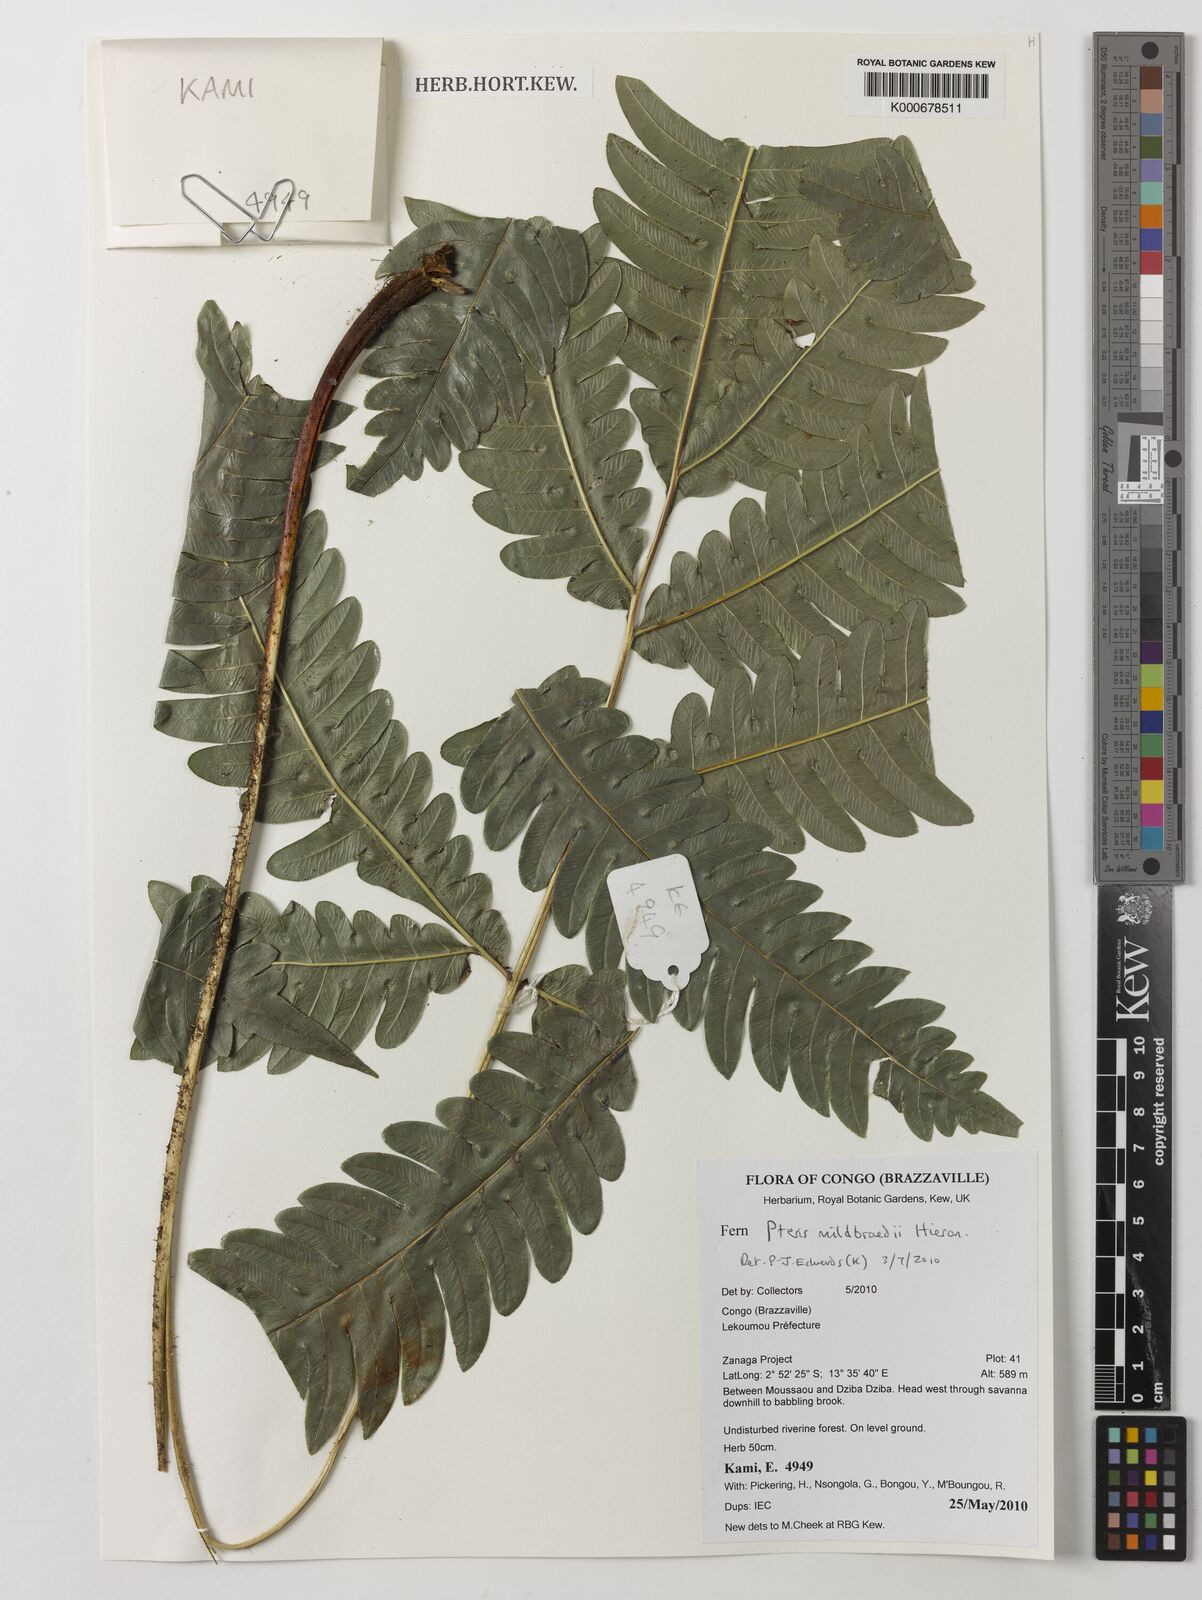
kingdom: Plantae
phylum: Tracheophyta
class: Polypodiopsida
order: Polypodiales
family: Pteridaceae
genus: Pteris
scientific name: Pteris mildbraedii
